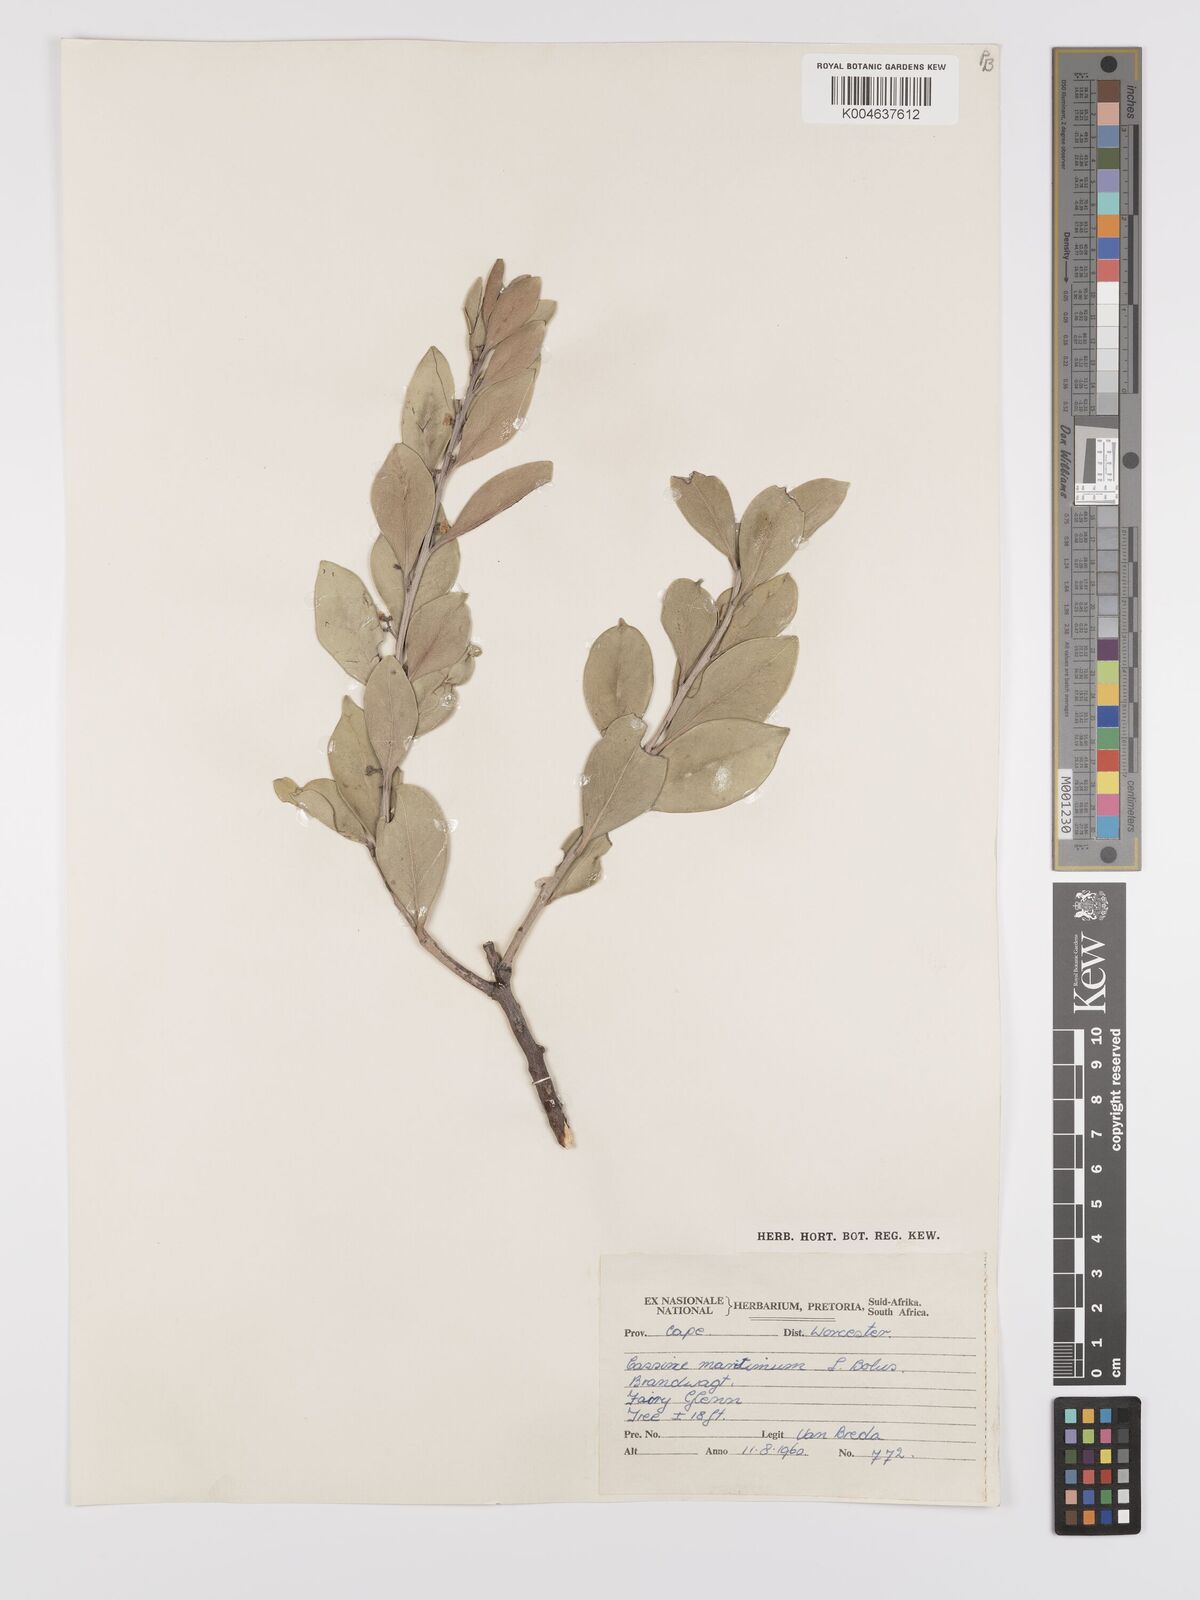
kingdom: Plantae
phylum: Tracheophyta
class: Magnoliopsida
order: Celastrales
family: Celastraceae
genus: Monteverdia
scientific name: Monteverdia laurina
